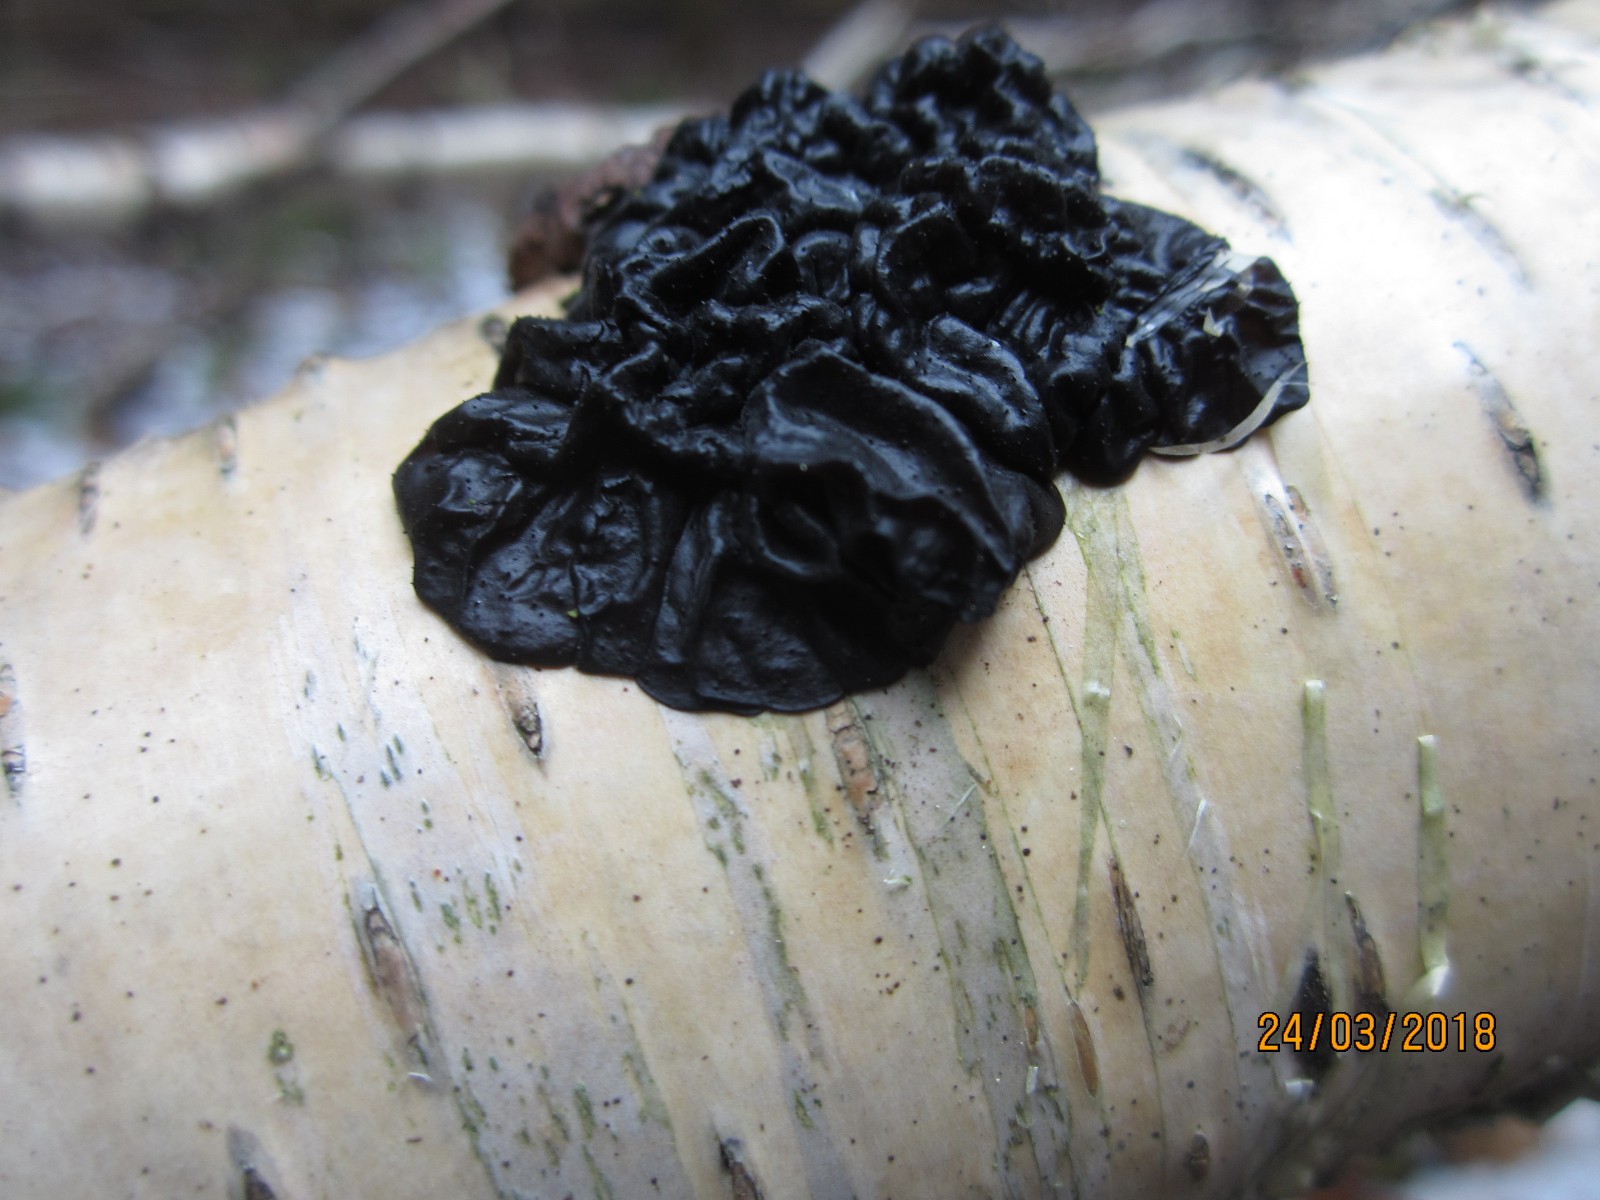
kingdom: Fungi
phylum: Basidiomycota
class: Agaricomycetes
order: Auriculariales
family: Auriculariaceae
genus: Exidia
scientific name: Exidia nigricans
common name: almindelig bævretop
